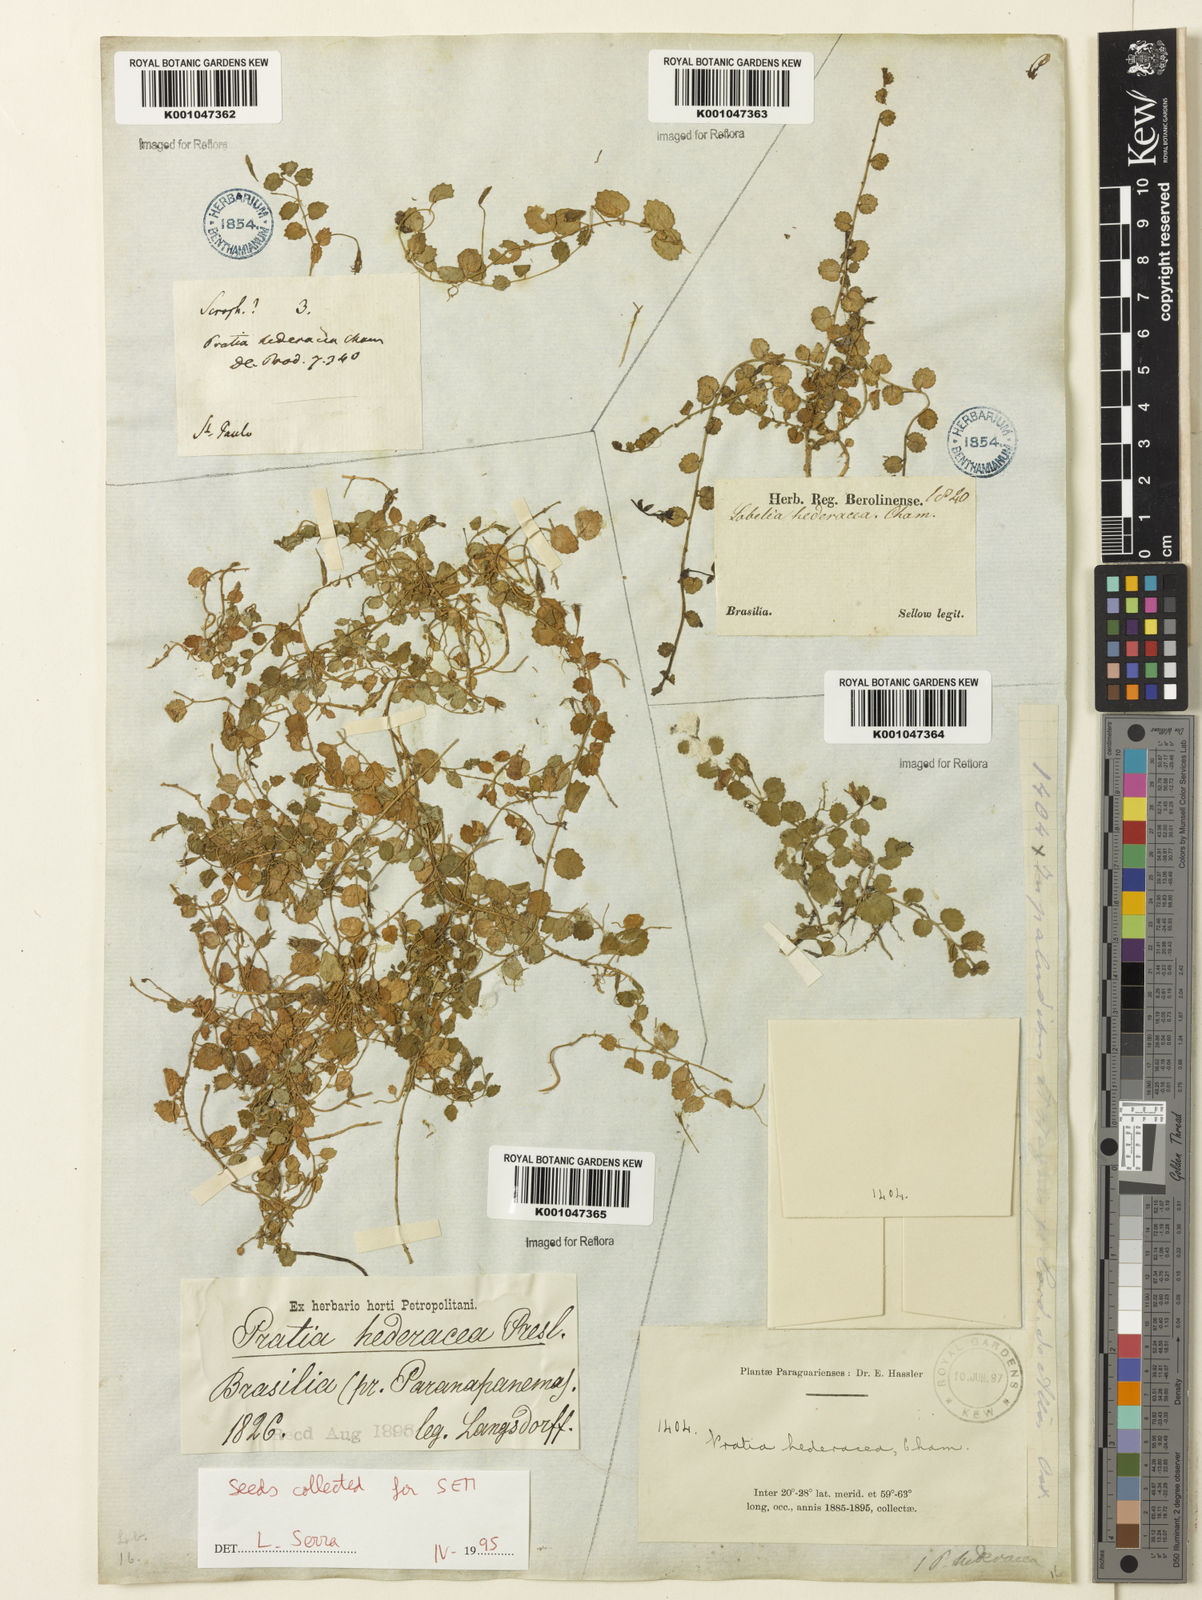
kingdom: Plantae
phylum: Tracheophyta
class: Magnoliopsida
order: Asterales
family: Campanulaceae
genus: Pratia
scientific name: Pratia
